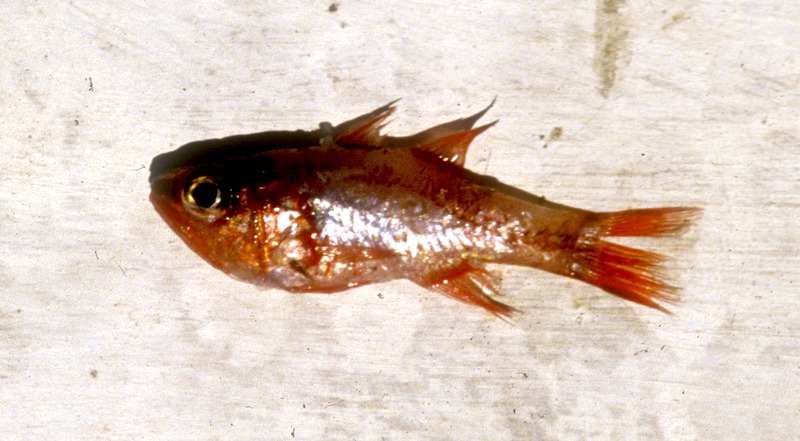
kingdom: Animalia
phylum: Chordata
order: Perciformes
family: Apogonidae
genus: Apogon
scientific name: Apogon imberbis
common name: Cardinal fish
